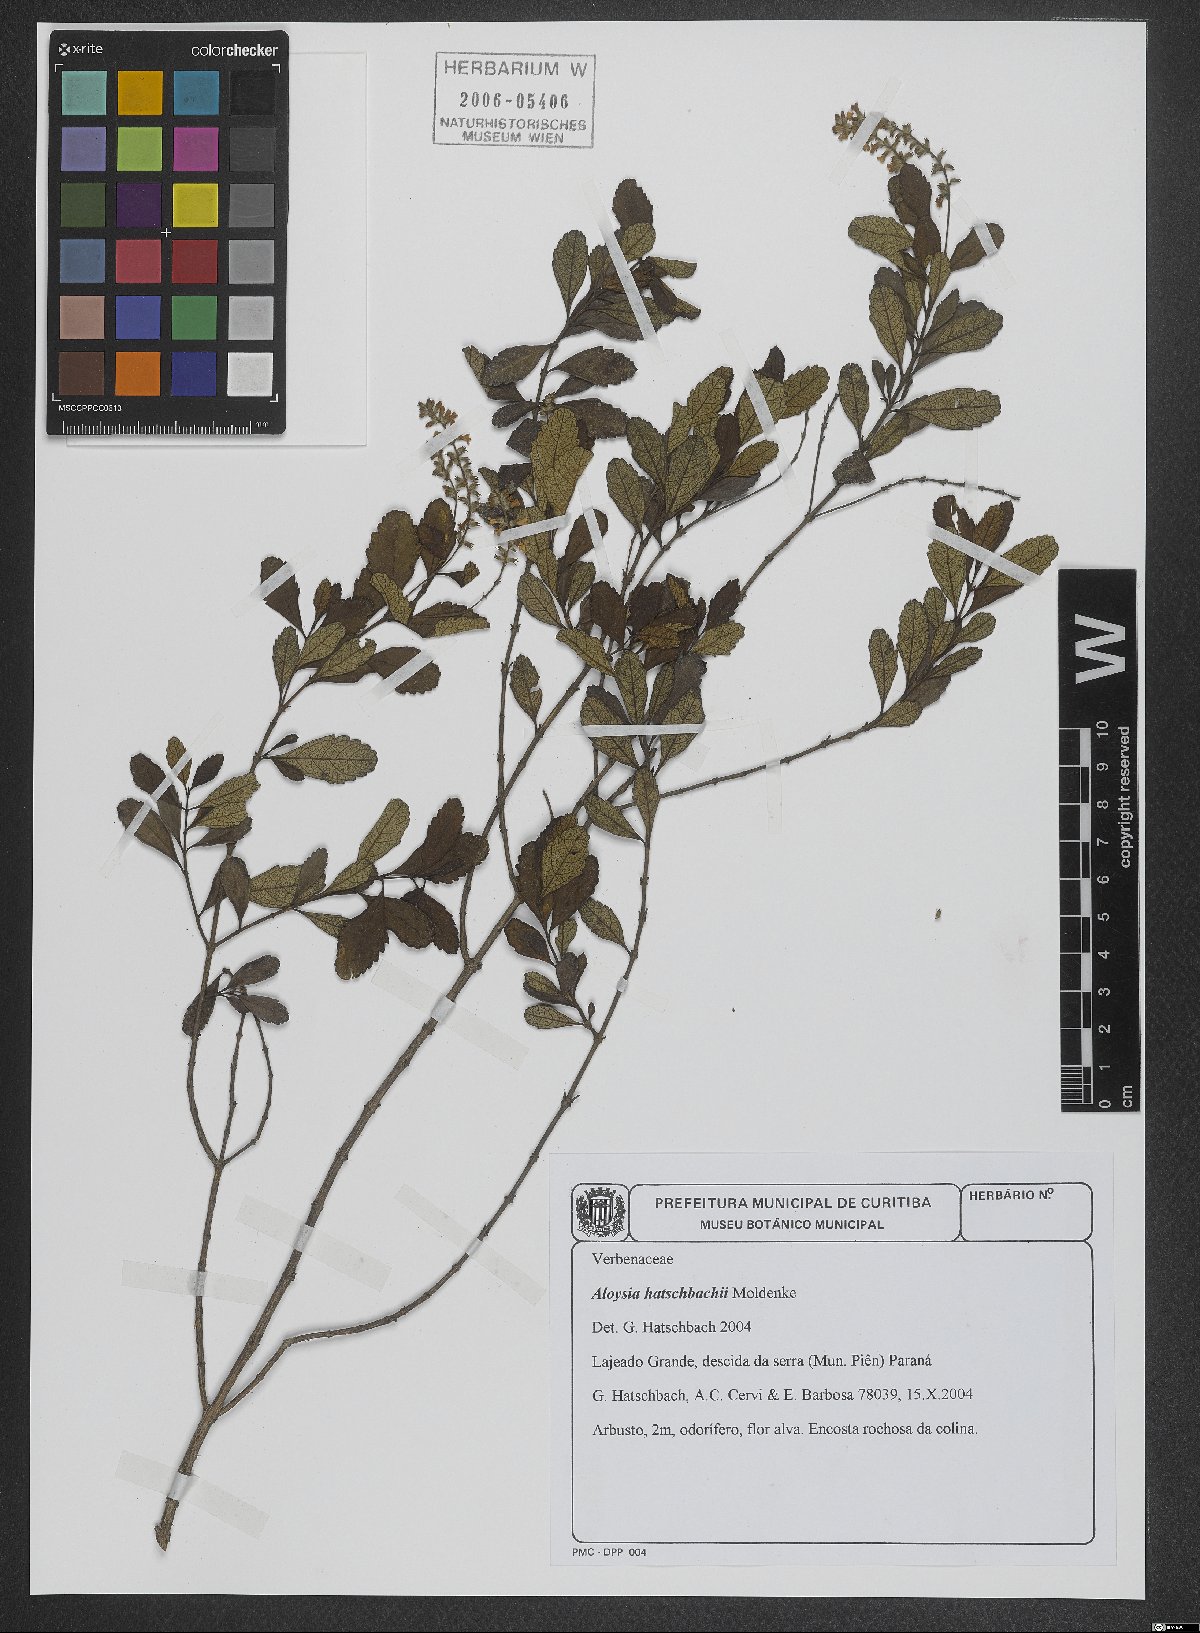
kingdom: Plantae
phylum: Tracheophyta
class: Magnoliopsida
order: Lamiales
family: Verbenaceae
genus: Aloysia
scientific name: Aloysia hatschbachii
